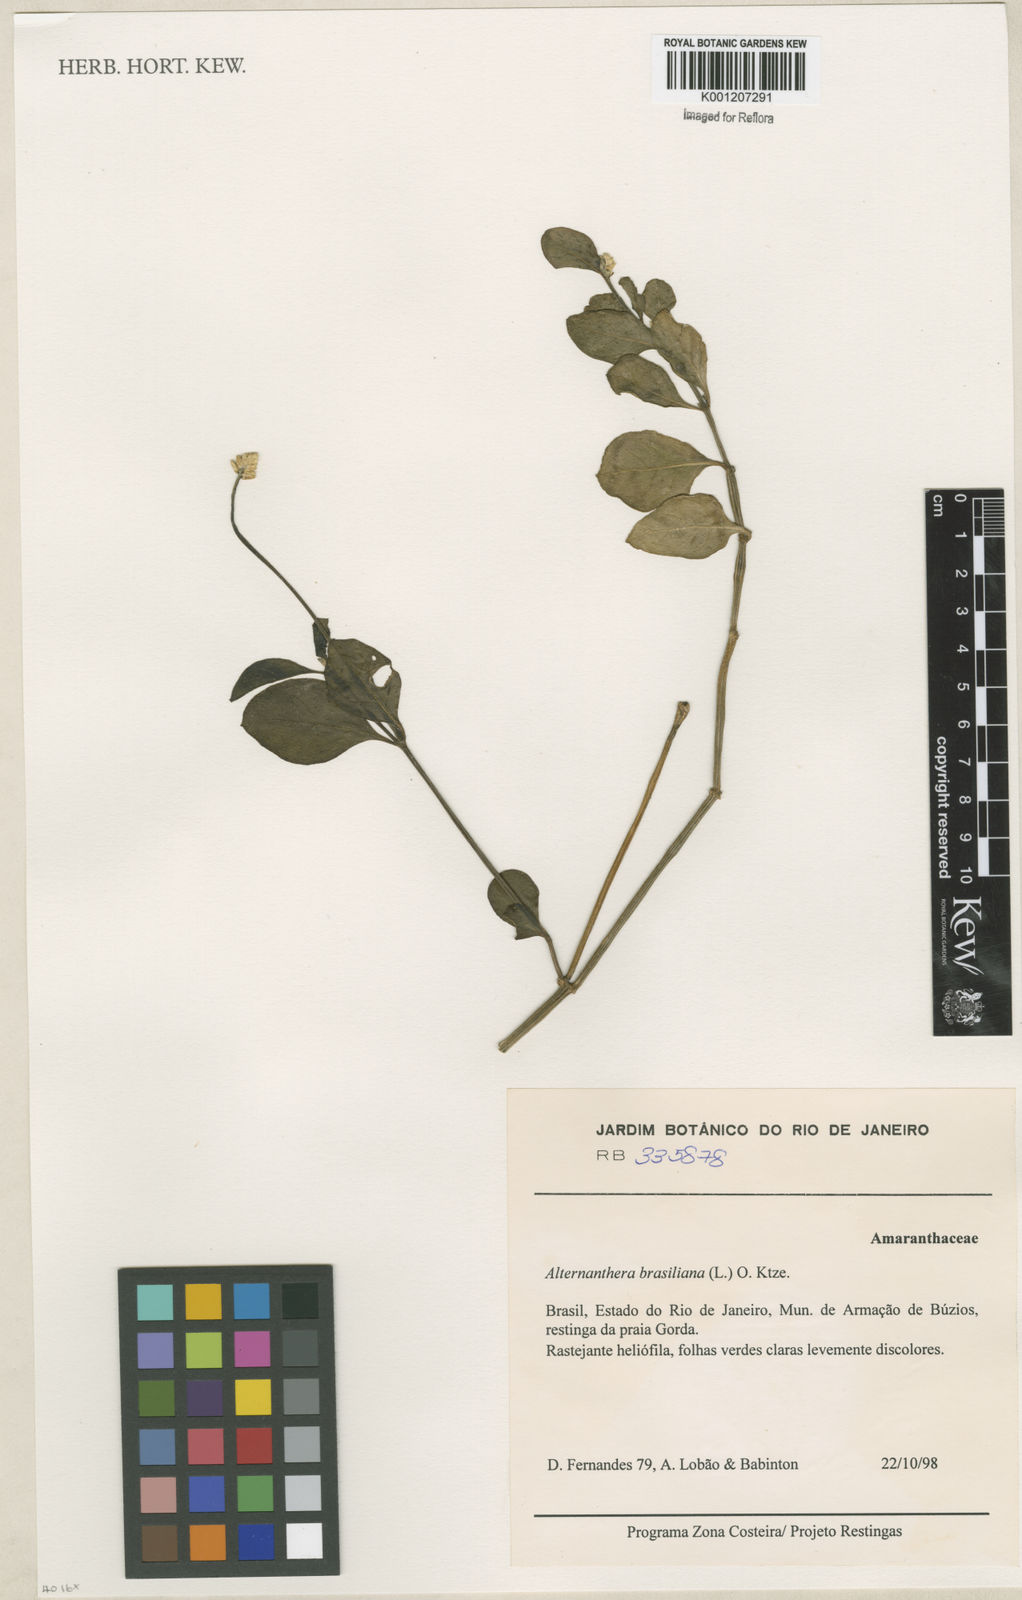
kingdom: Plantae
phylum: Tracheophyta
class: Magnoliopsida
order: Caryophyllales
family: Amaranthaceae
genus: Alternanthera
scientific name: Alternanthera brasiliana
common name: Brazilian joyweed
